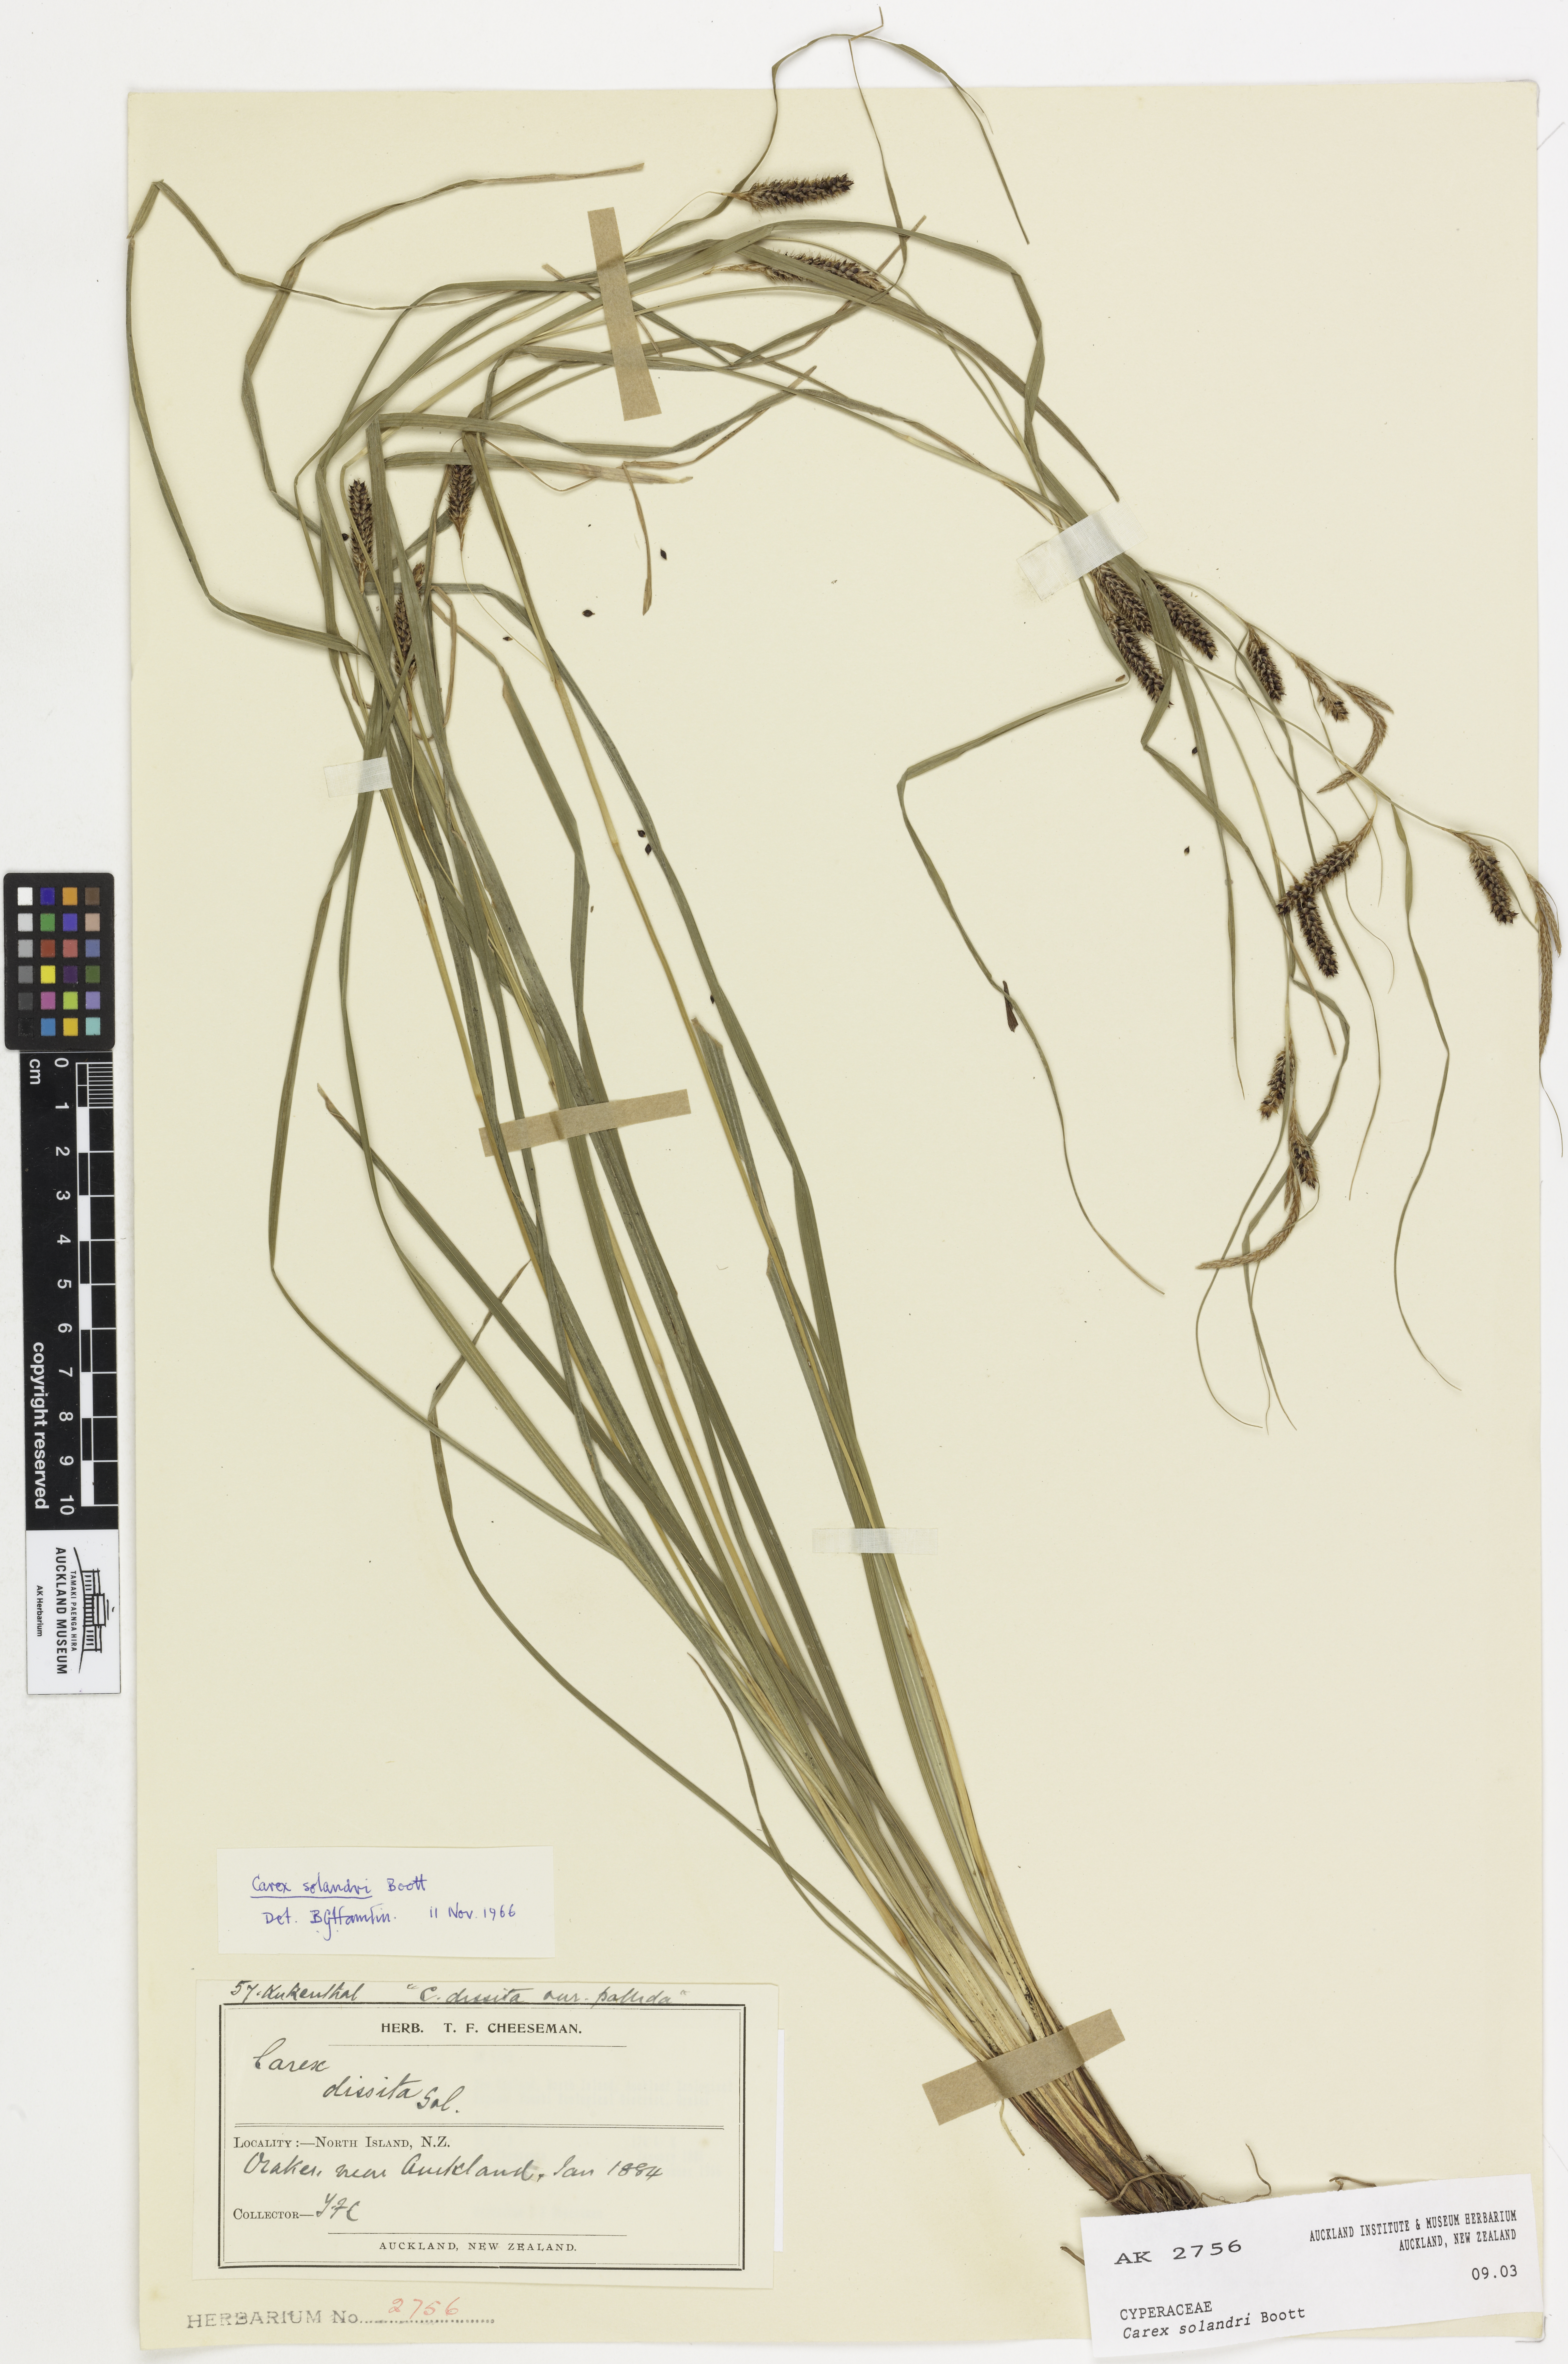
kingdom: Plantae
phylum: Tracheophyta
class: Liliopsida
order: Poales
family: Cyperaceae
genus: Carex
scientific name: Carex solandri
